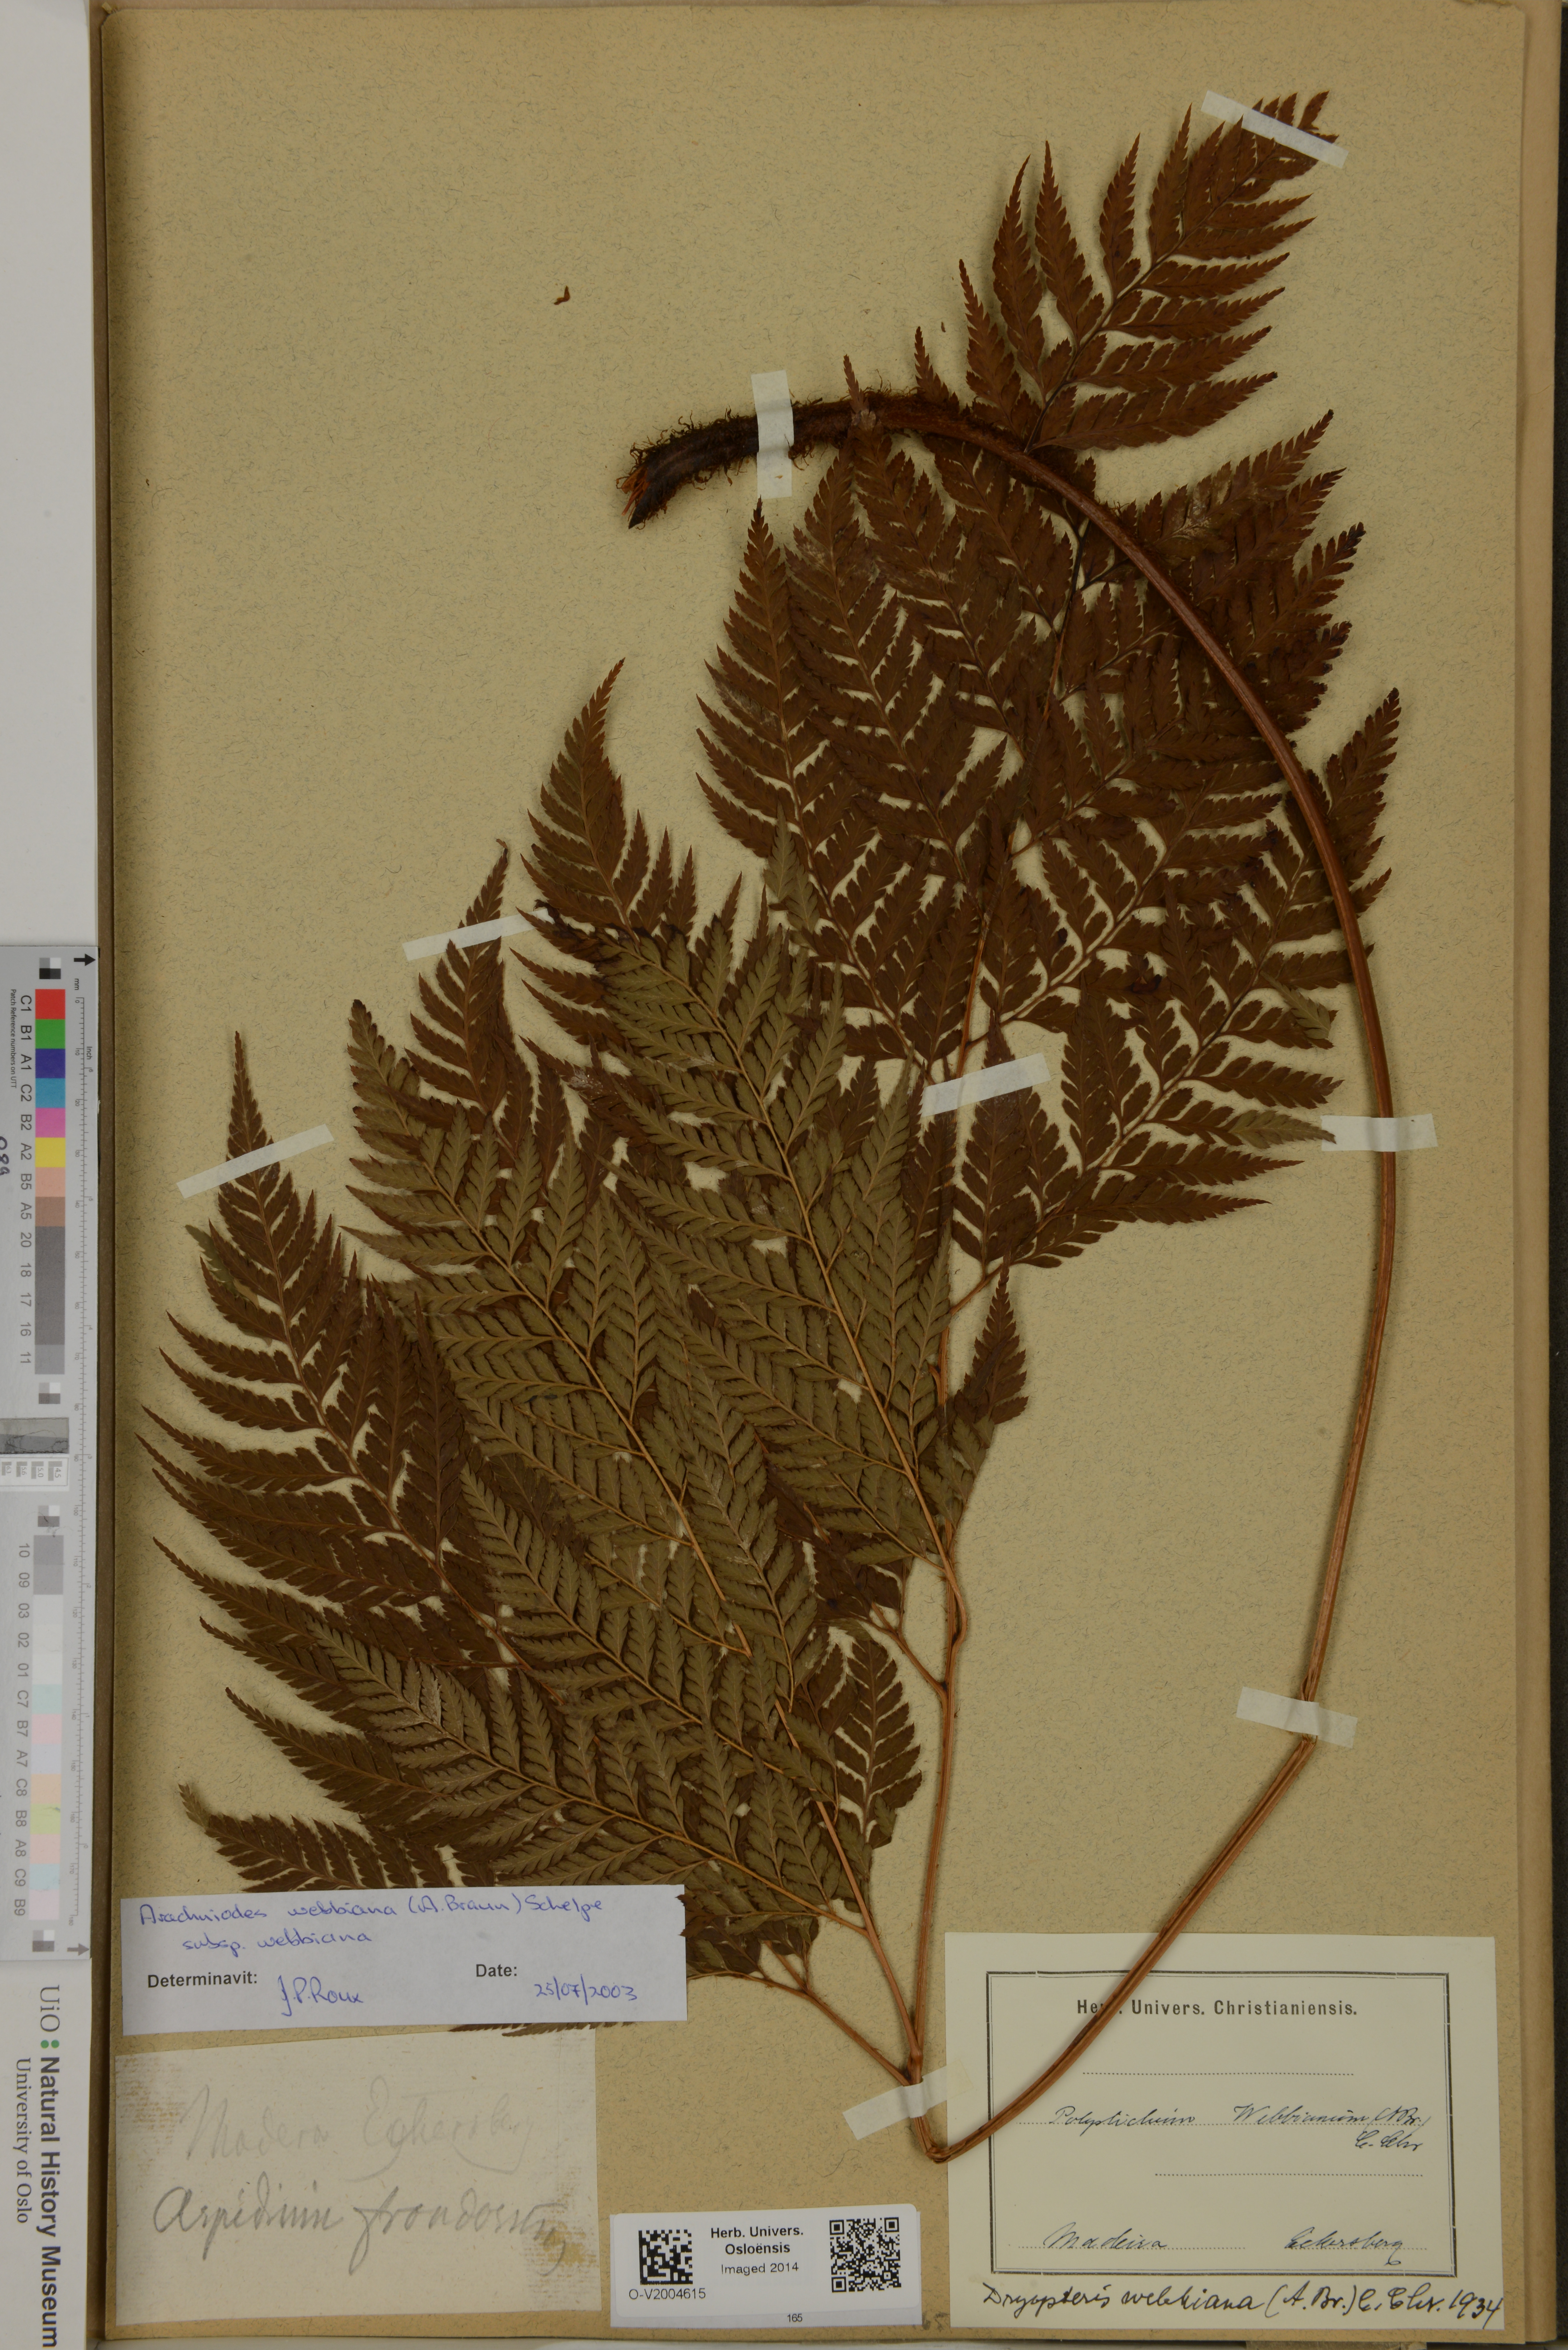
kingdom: Plantae
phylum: Tracheophyta
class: Polypodiopsida
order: Polypodiales
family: Dryopteridaceae
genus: Arachniodes
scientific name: Arachniodes webbiana
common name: Madeira holly fern
